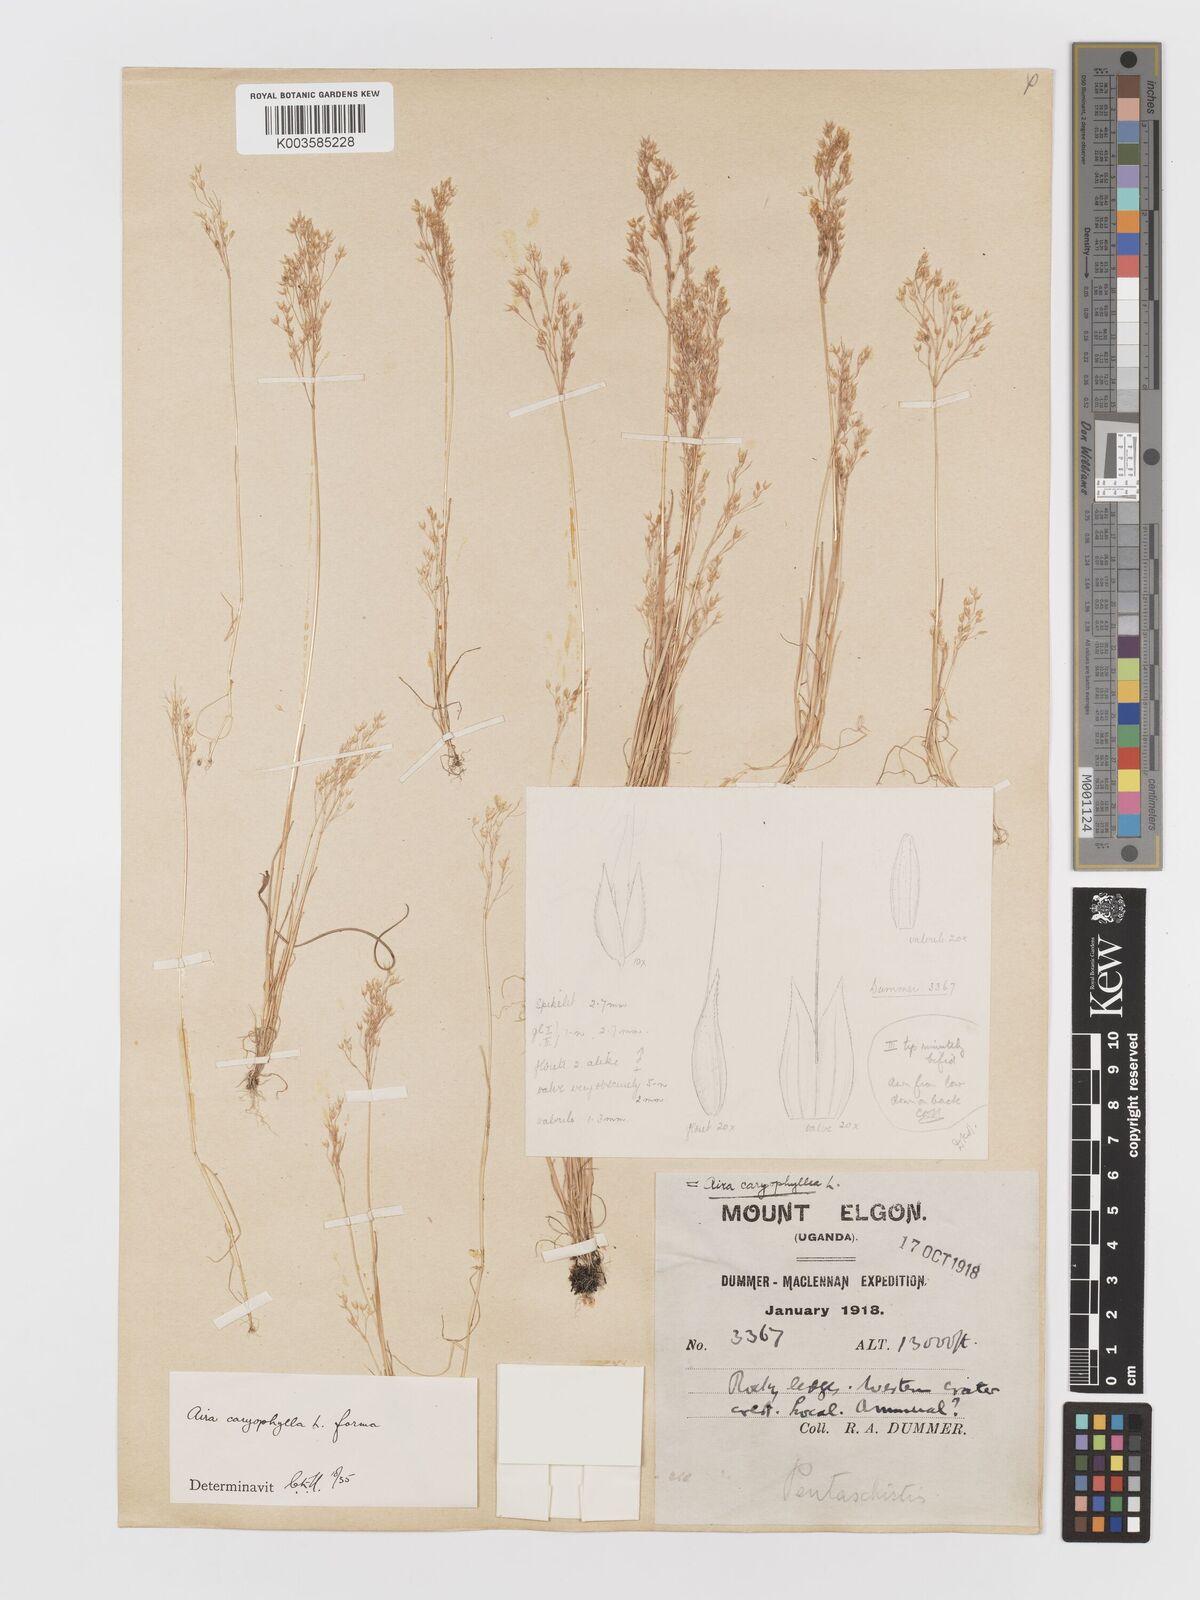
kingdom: Plantae
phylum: Tracheophyta
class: Liliopsida
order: Poales
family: Poaceae
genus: Aira
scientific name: Aira caryophyllea
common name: Silver hairgrass
